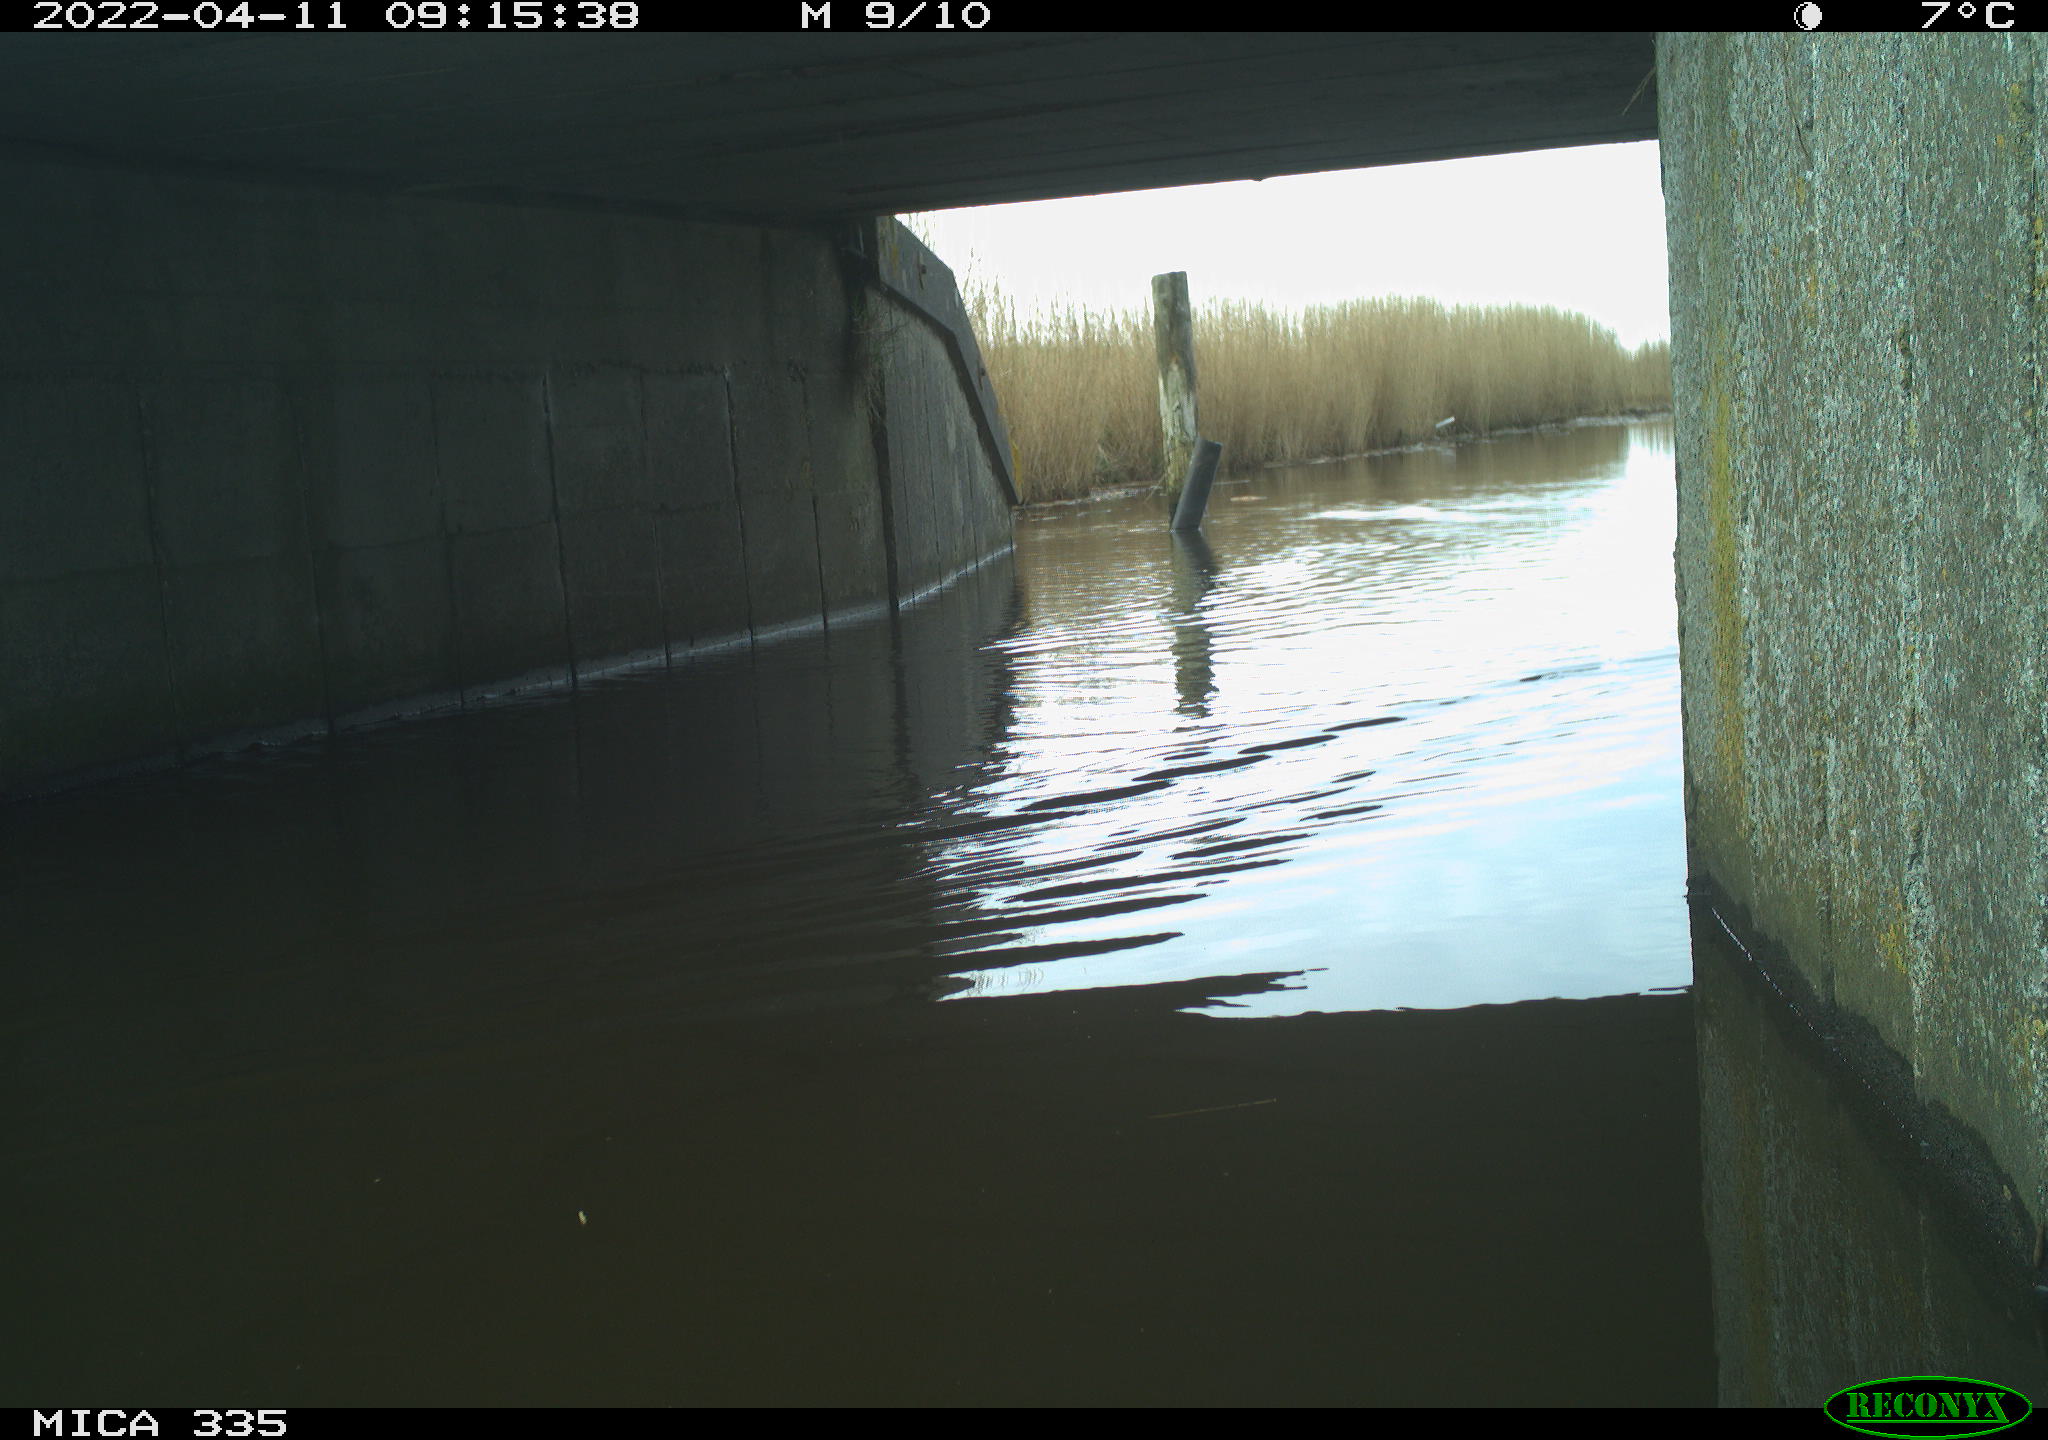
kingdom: Animalia
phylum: Chordata
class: Aves
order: Anseriformes
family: Anatidae
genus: Anas
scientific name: Anas platyrhynchos
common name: Mallard
